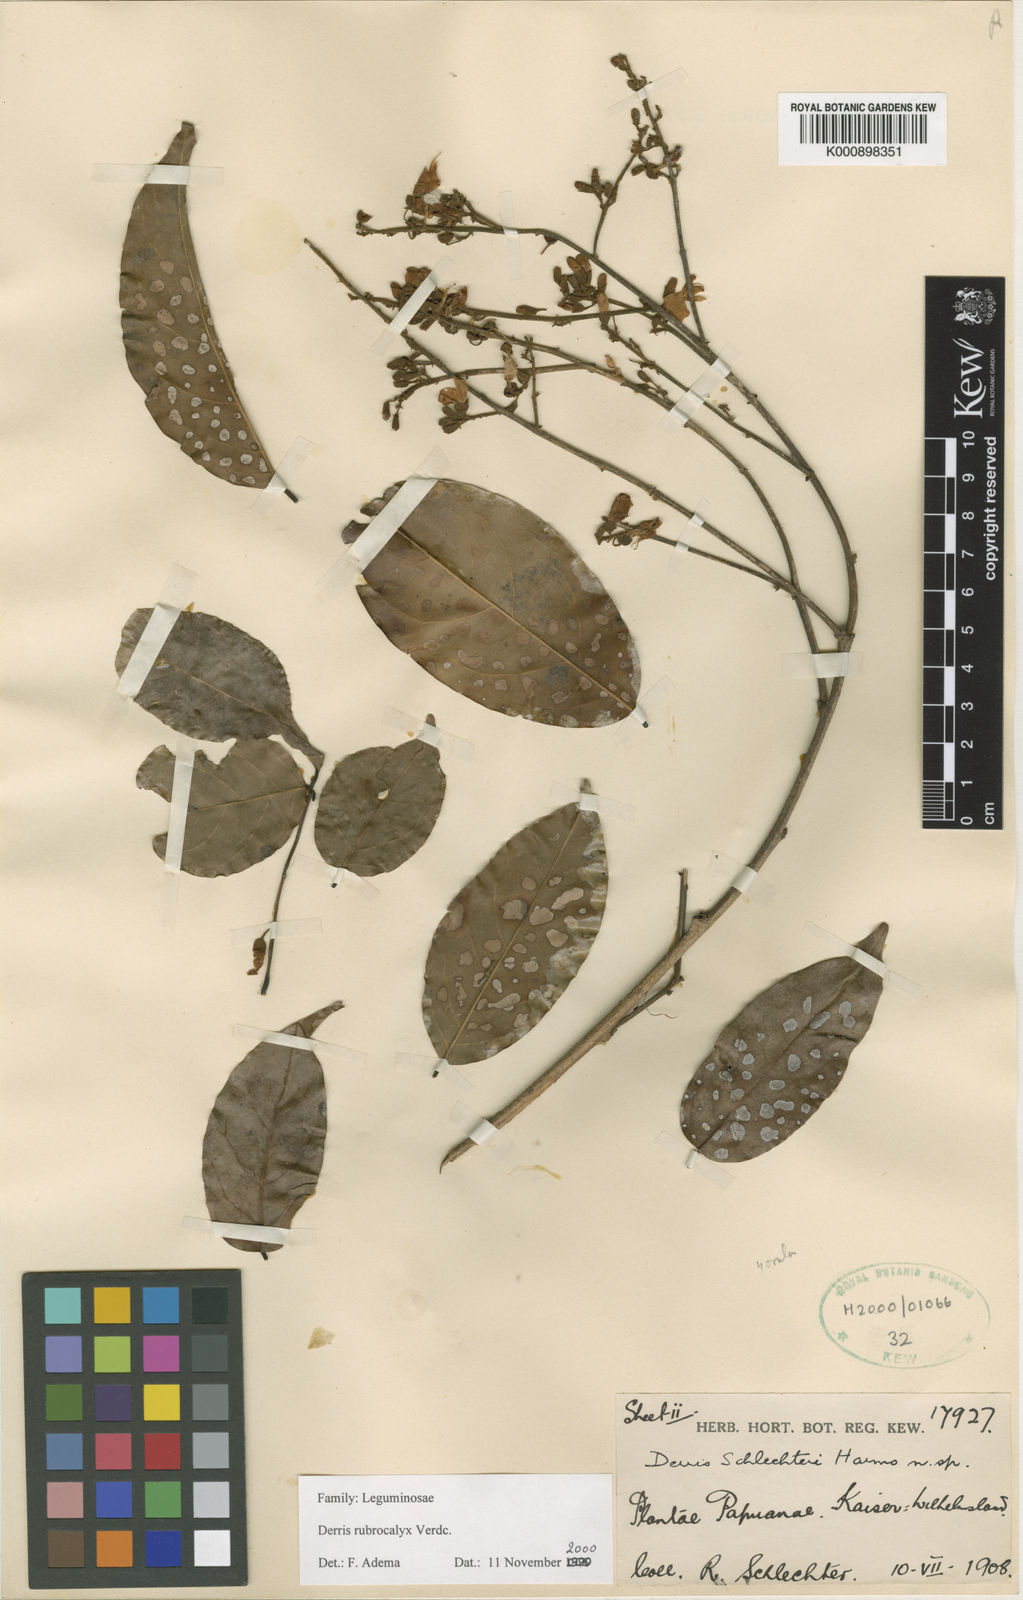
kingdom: Plantae
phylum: Tracheophyta
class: Magnoliopsida
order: Fabales
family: Fabaceae
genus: Derris
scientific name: Derris rubrocalyx
